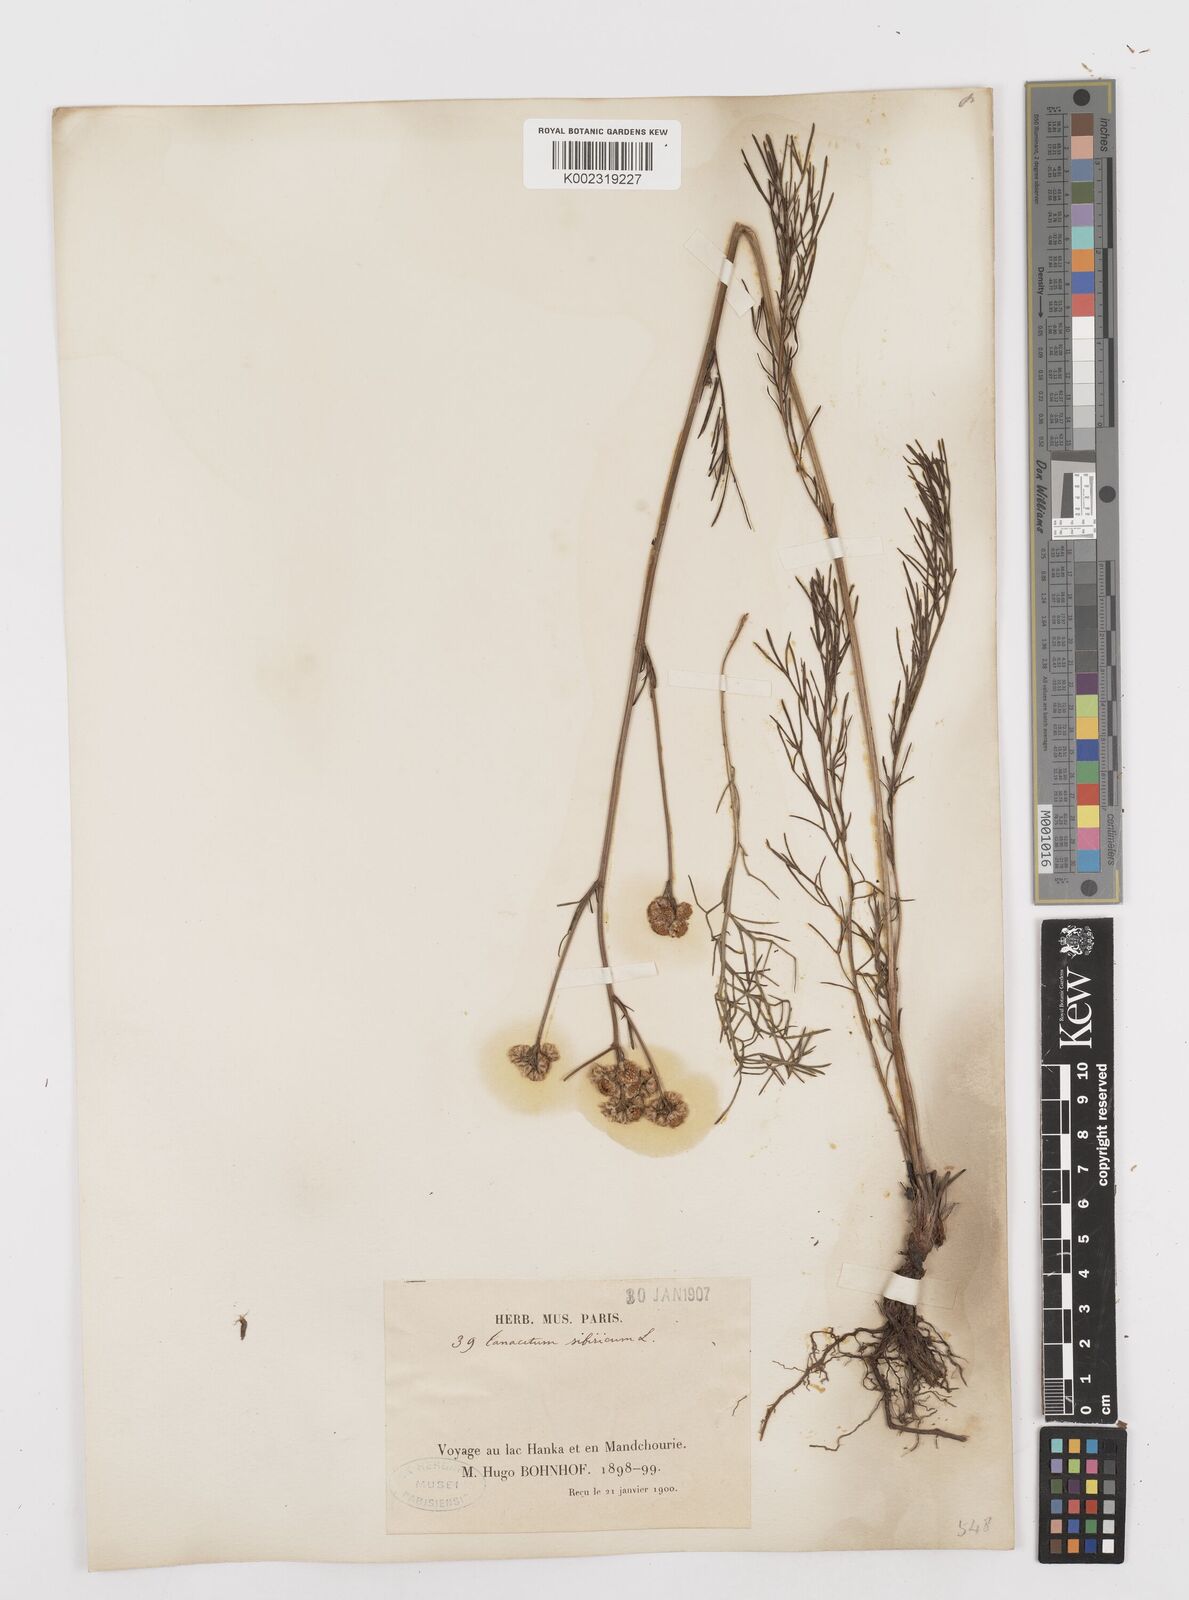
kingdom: Plantae
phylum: Tracheophyta
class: Magnoliopsida
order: Asterales
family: Asteraceae
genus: Filifolium
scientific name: Filifolium sibiricum
